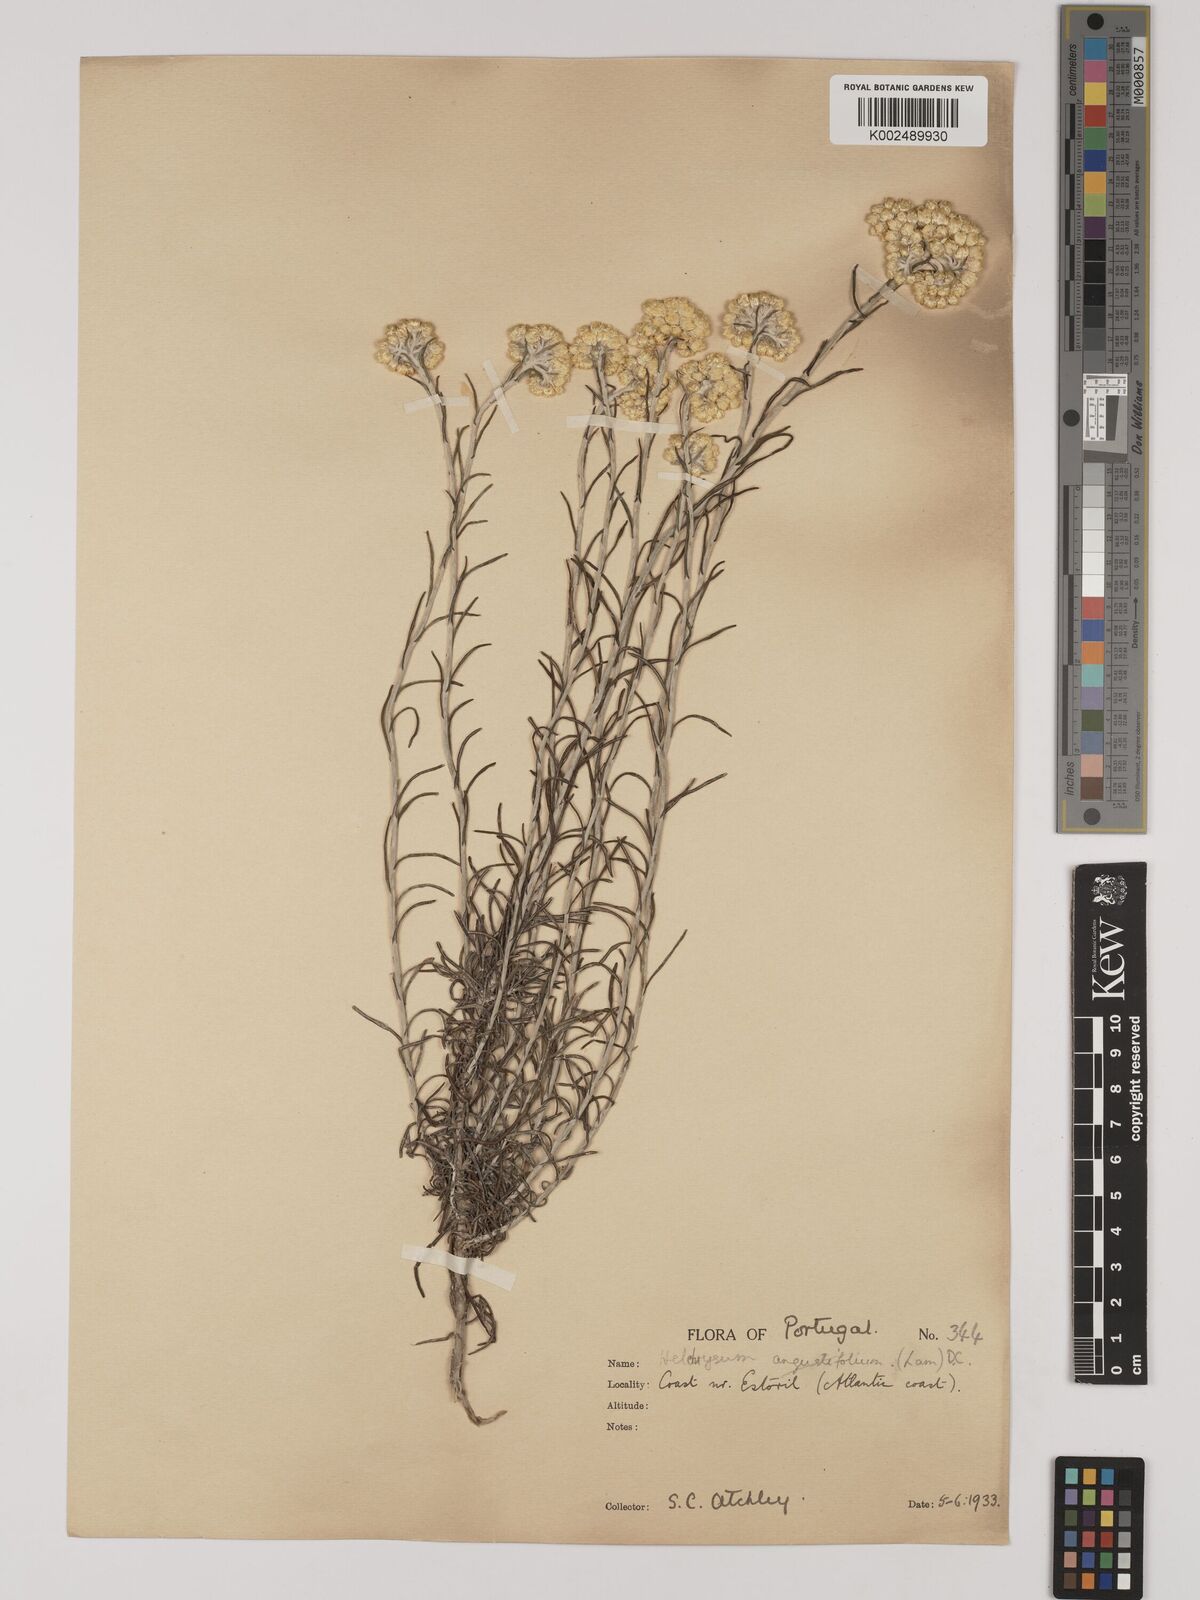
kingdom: Plantae
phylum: Tracheophyta
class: Magnoliopsida
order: Asterales
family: Asteraceae
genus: Helichrysum
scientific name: Helichrysum
